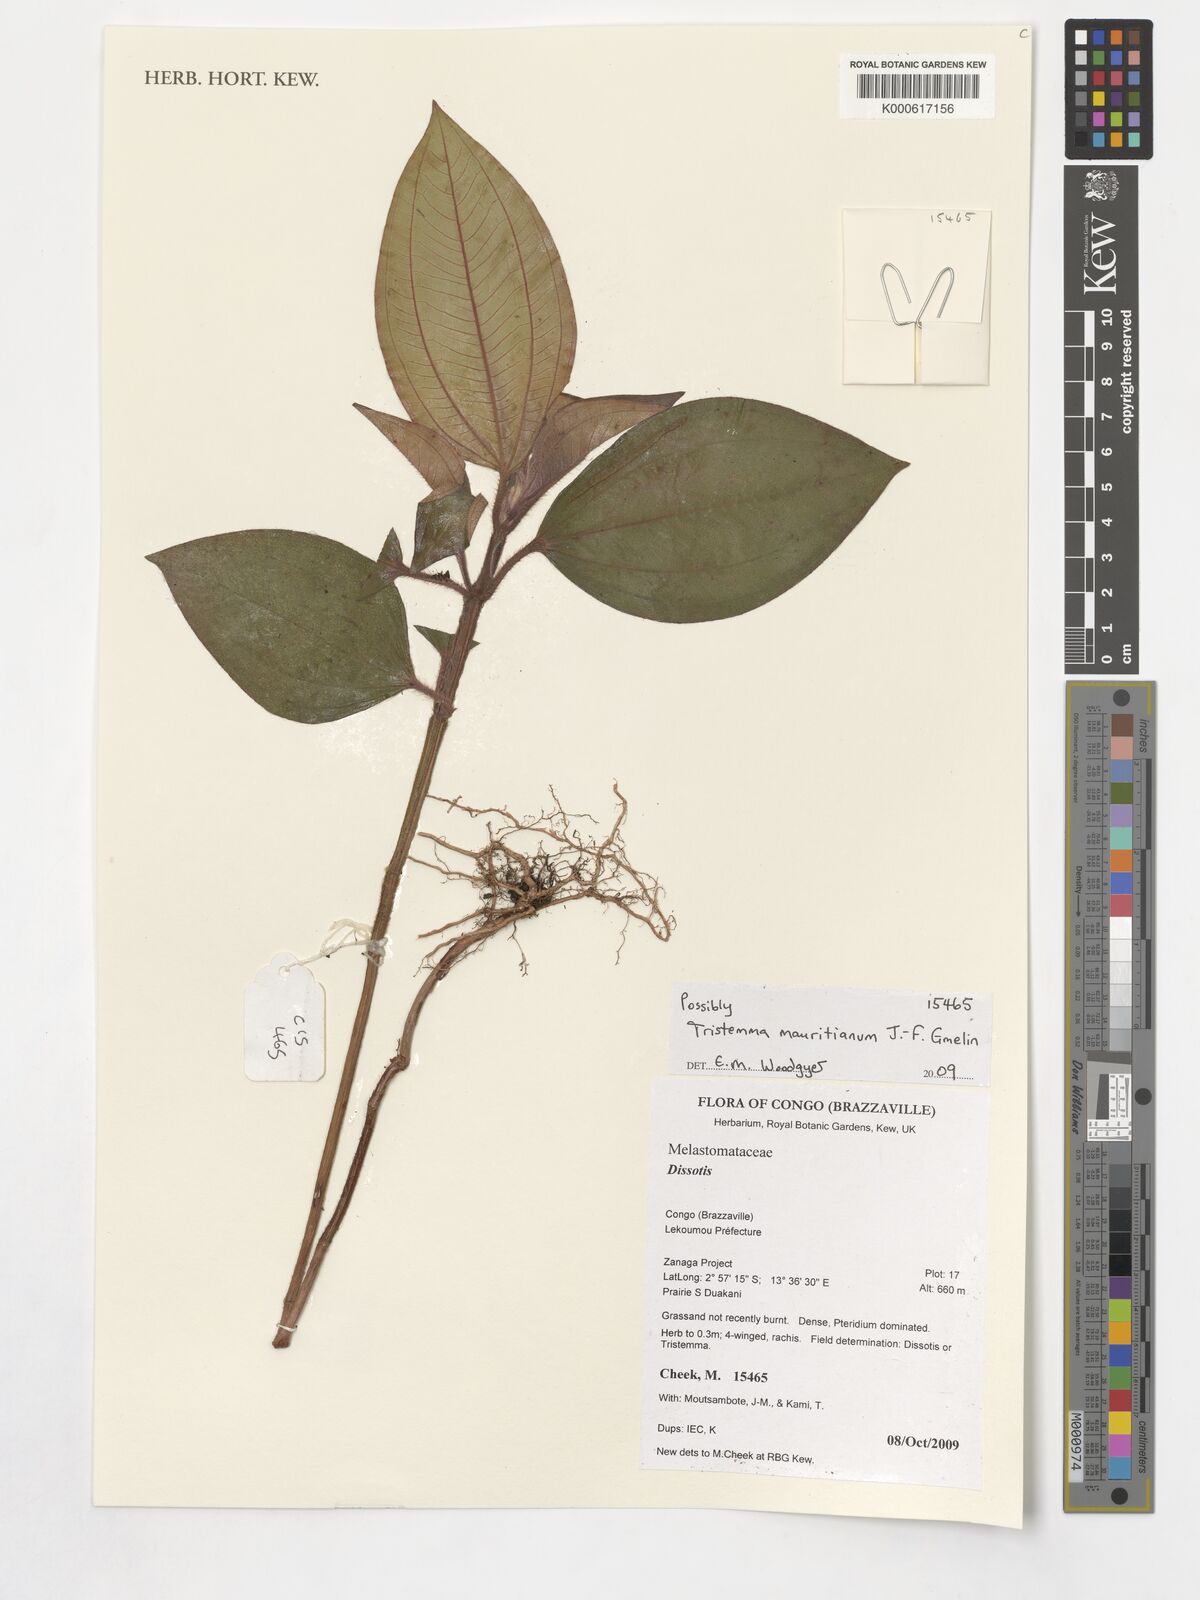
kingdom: Plantae
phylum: Tracheophyta
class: Magnoliopsida
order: Myrtales
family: Melastomataceae
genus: Tristemma
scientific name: Tristemma mauritianum
